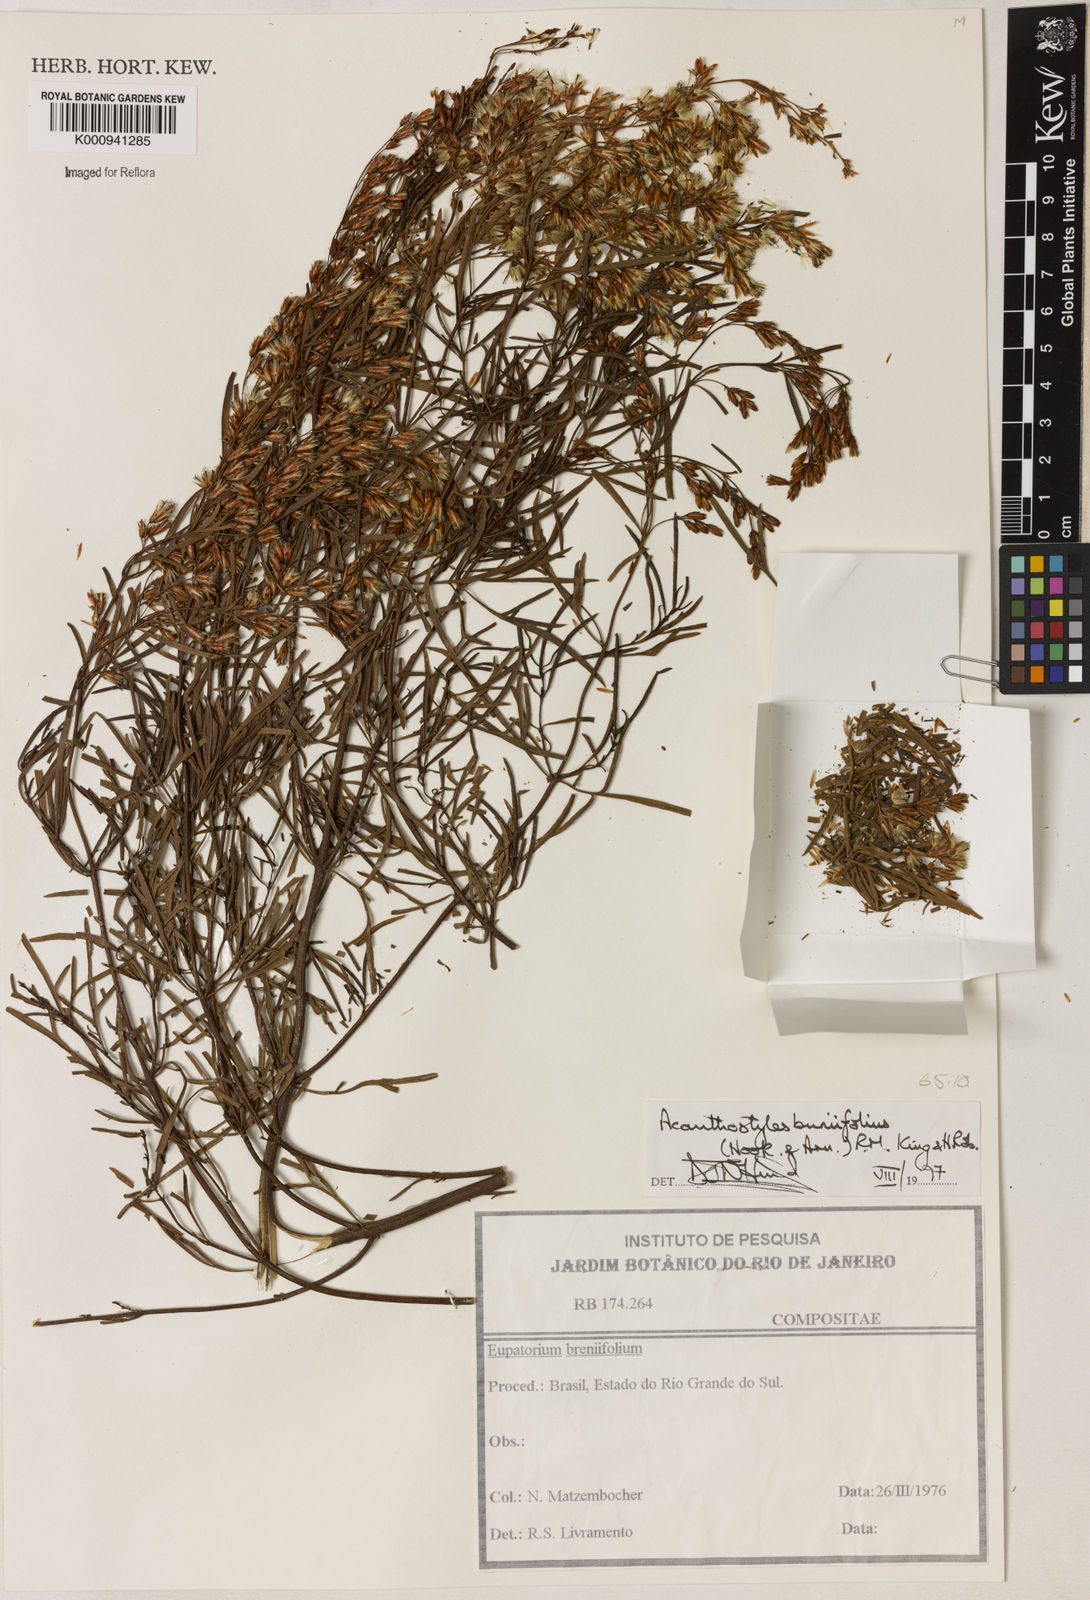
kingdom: Plantae
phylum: Tracheophyta
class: Magnoliopsida
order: Asterales
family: Asteraceae
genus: Acanthostyles
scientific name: Acanthostyles buniifolius
